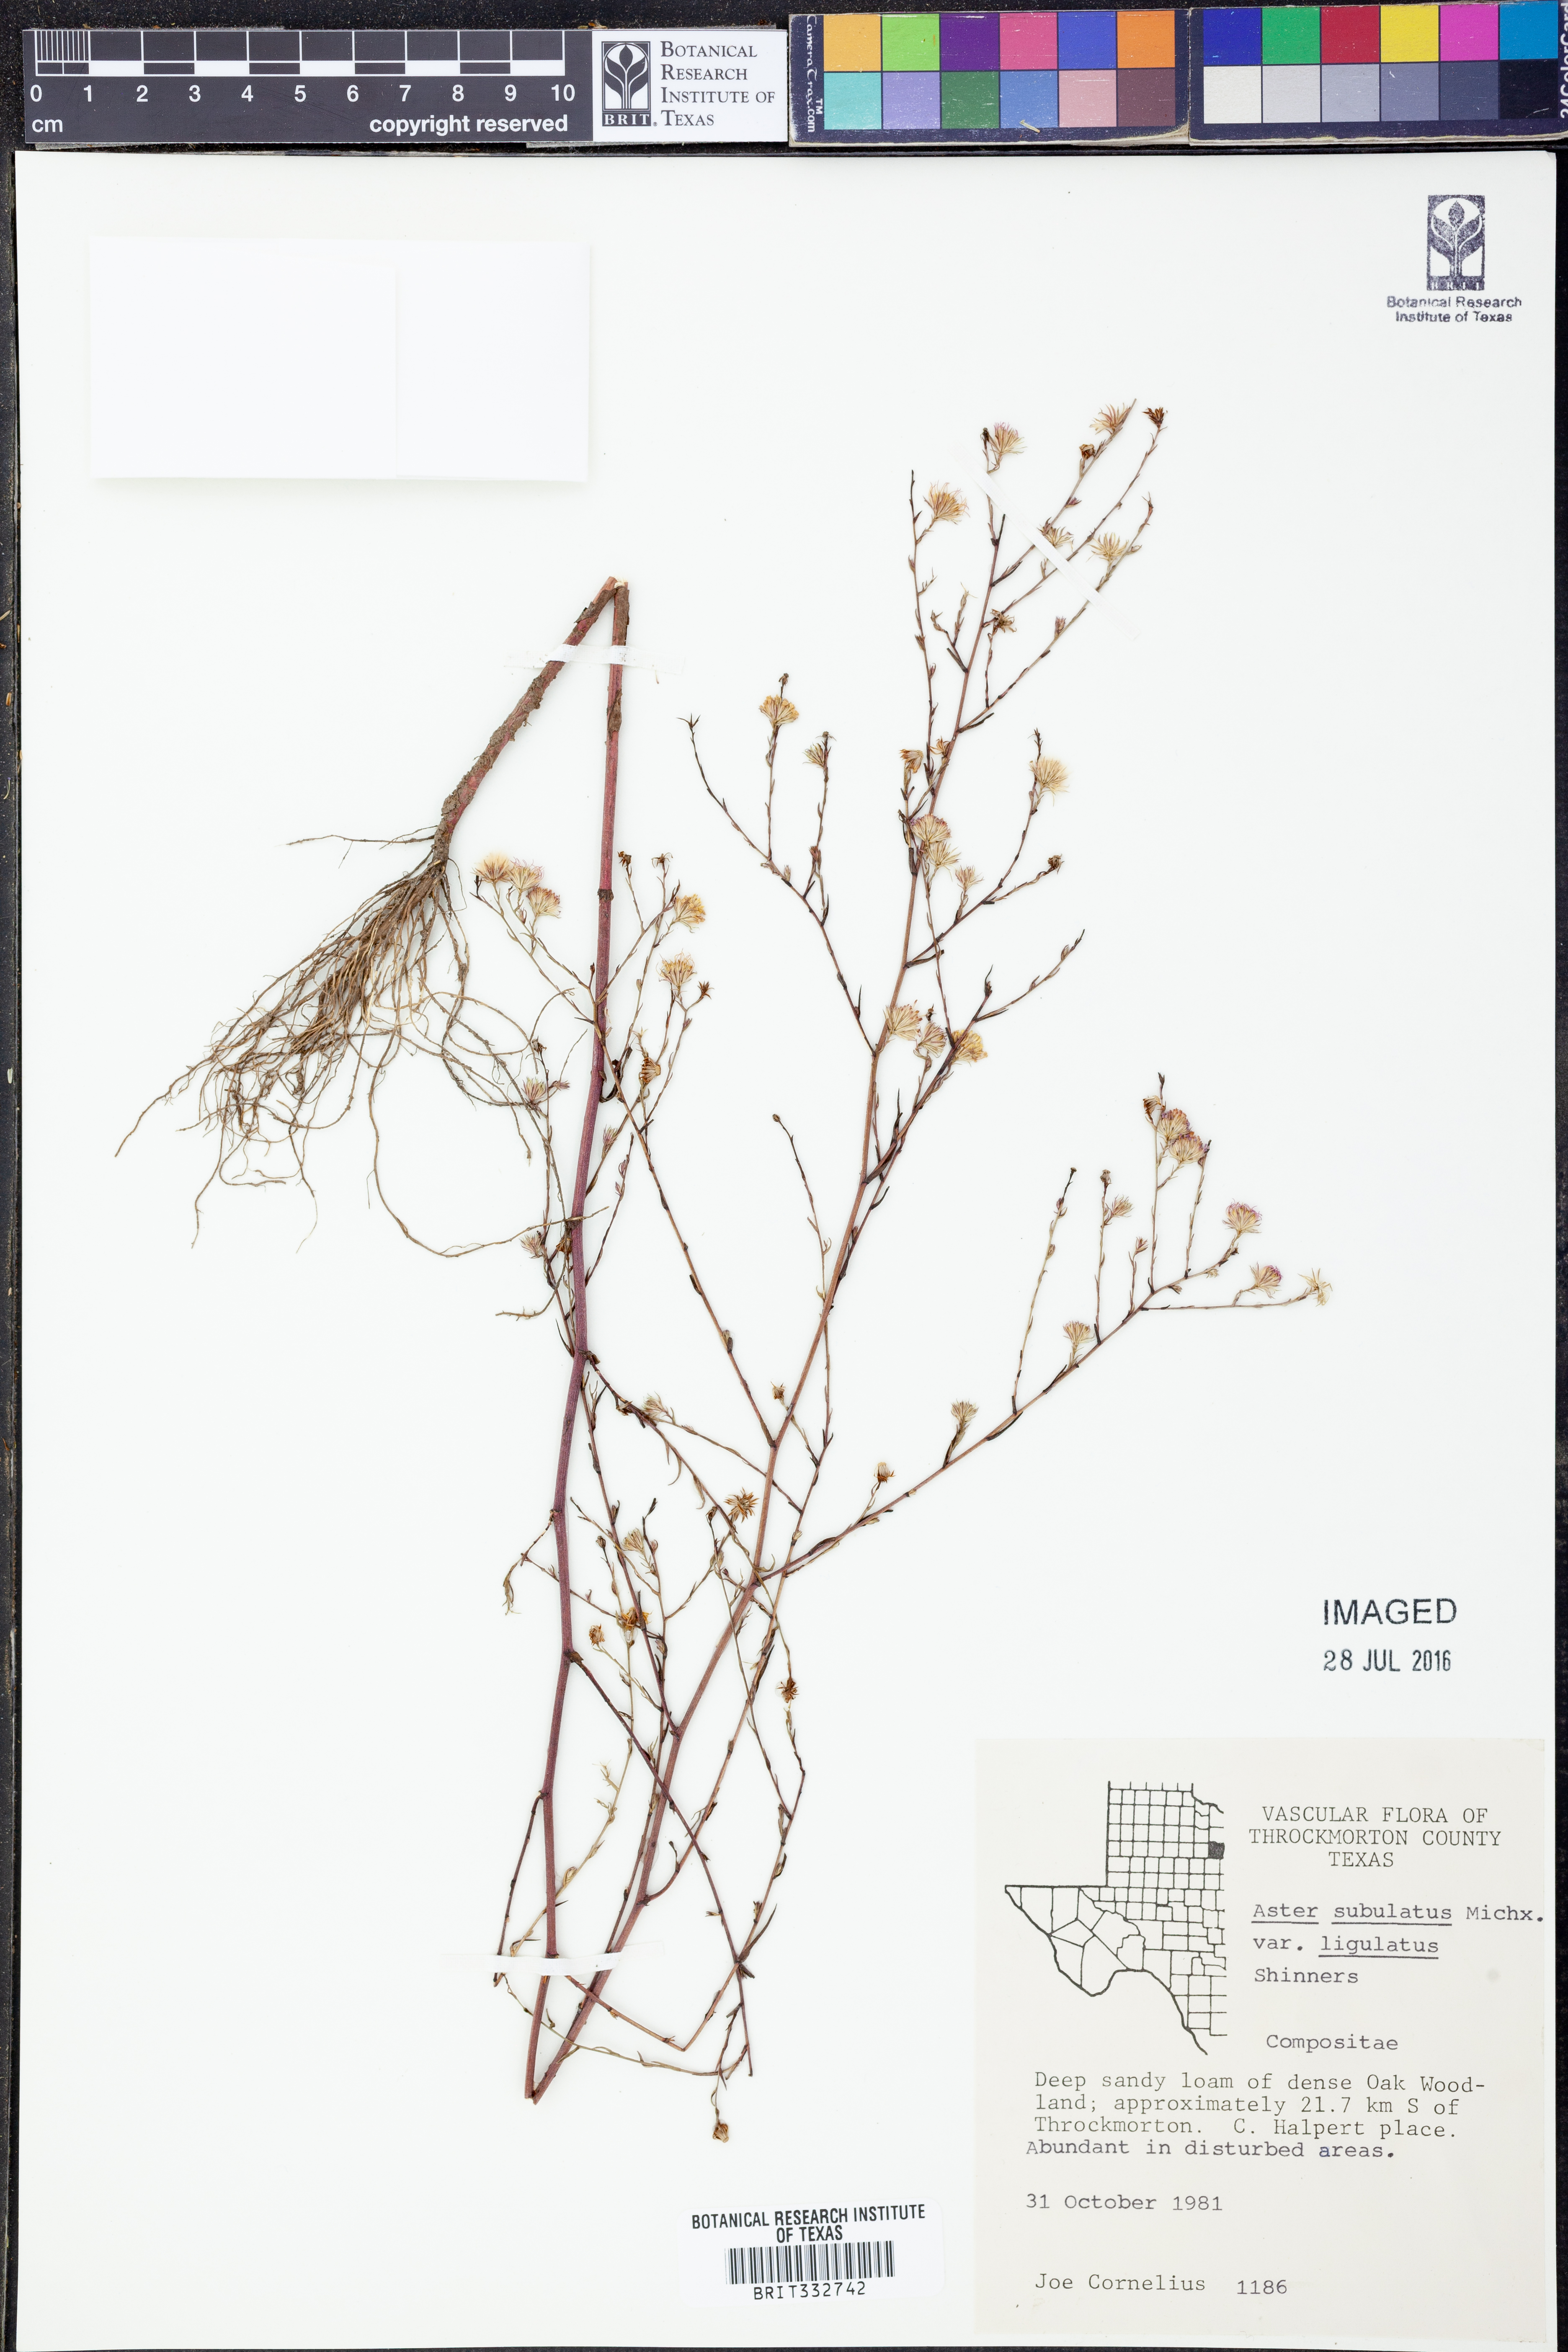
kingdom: Plantae
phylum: Tracheophyta
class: Magnoliopsida
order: Asterales
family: Asteraceae
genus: Symphyotrichum
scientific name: Symphyotrichum divaricatum
